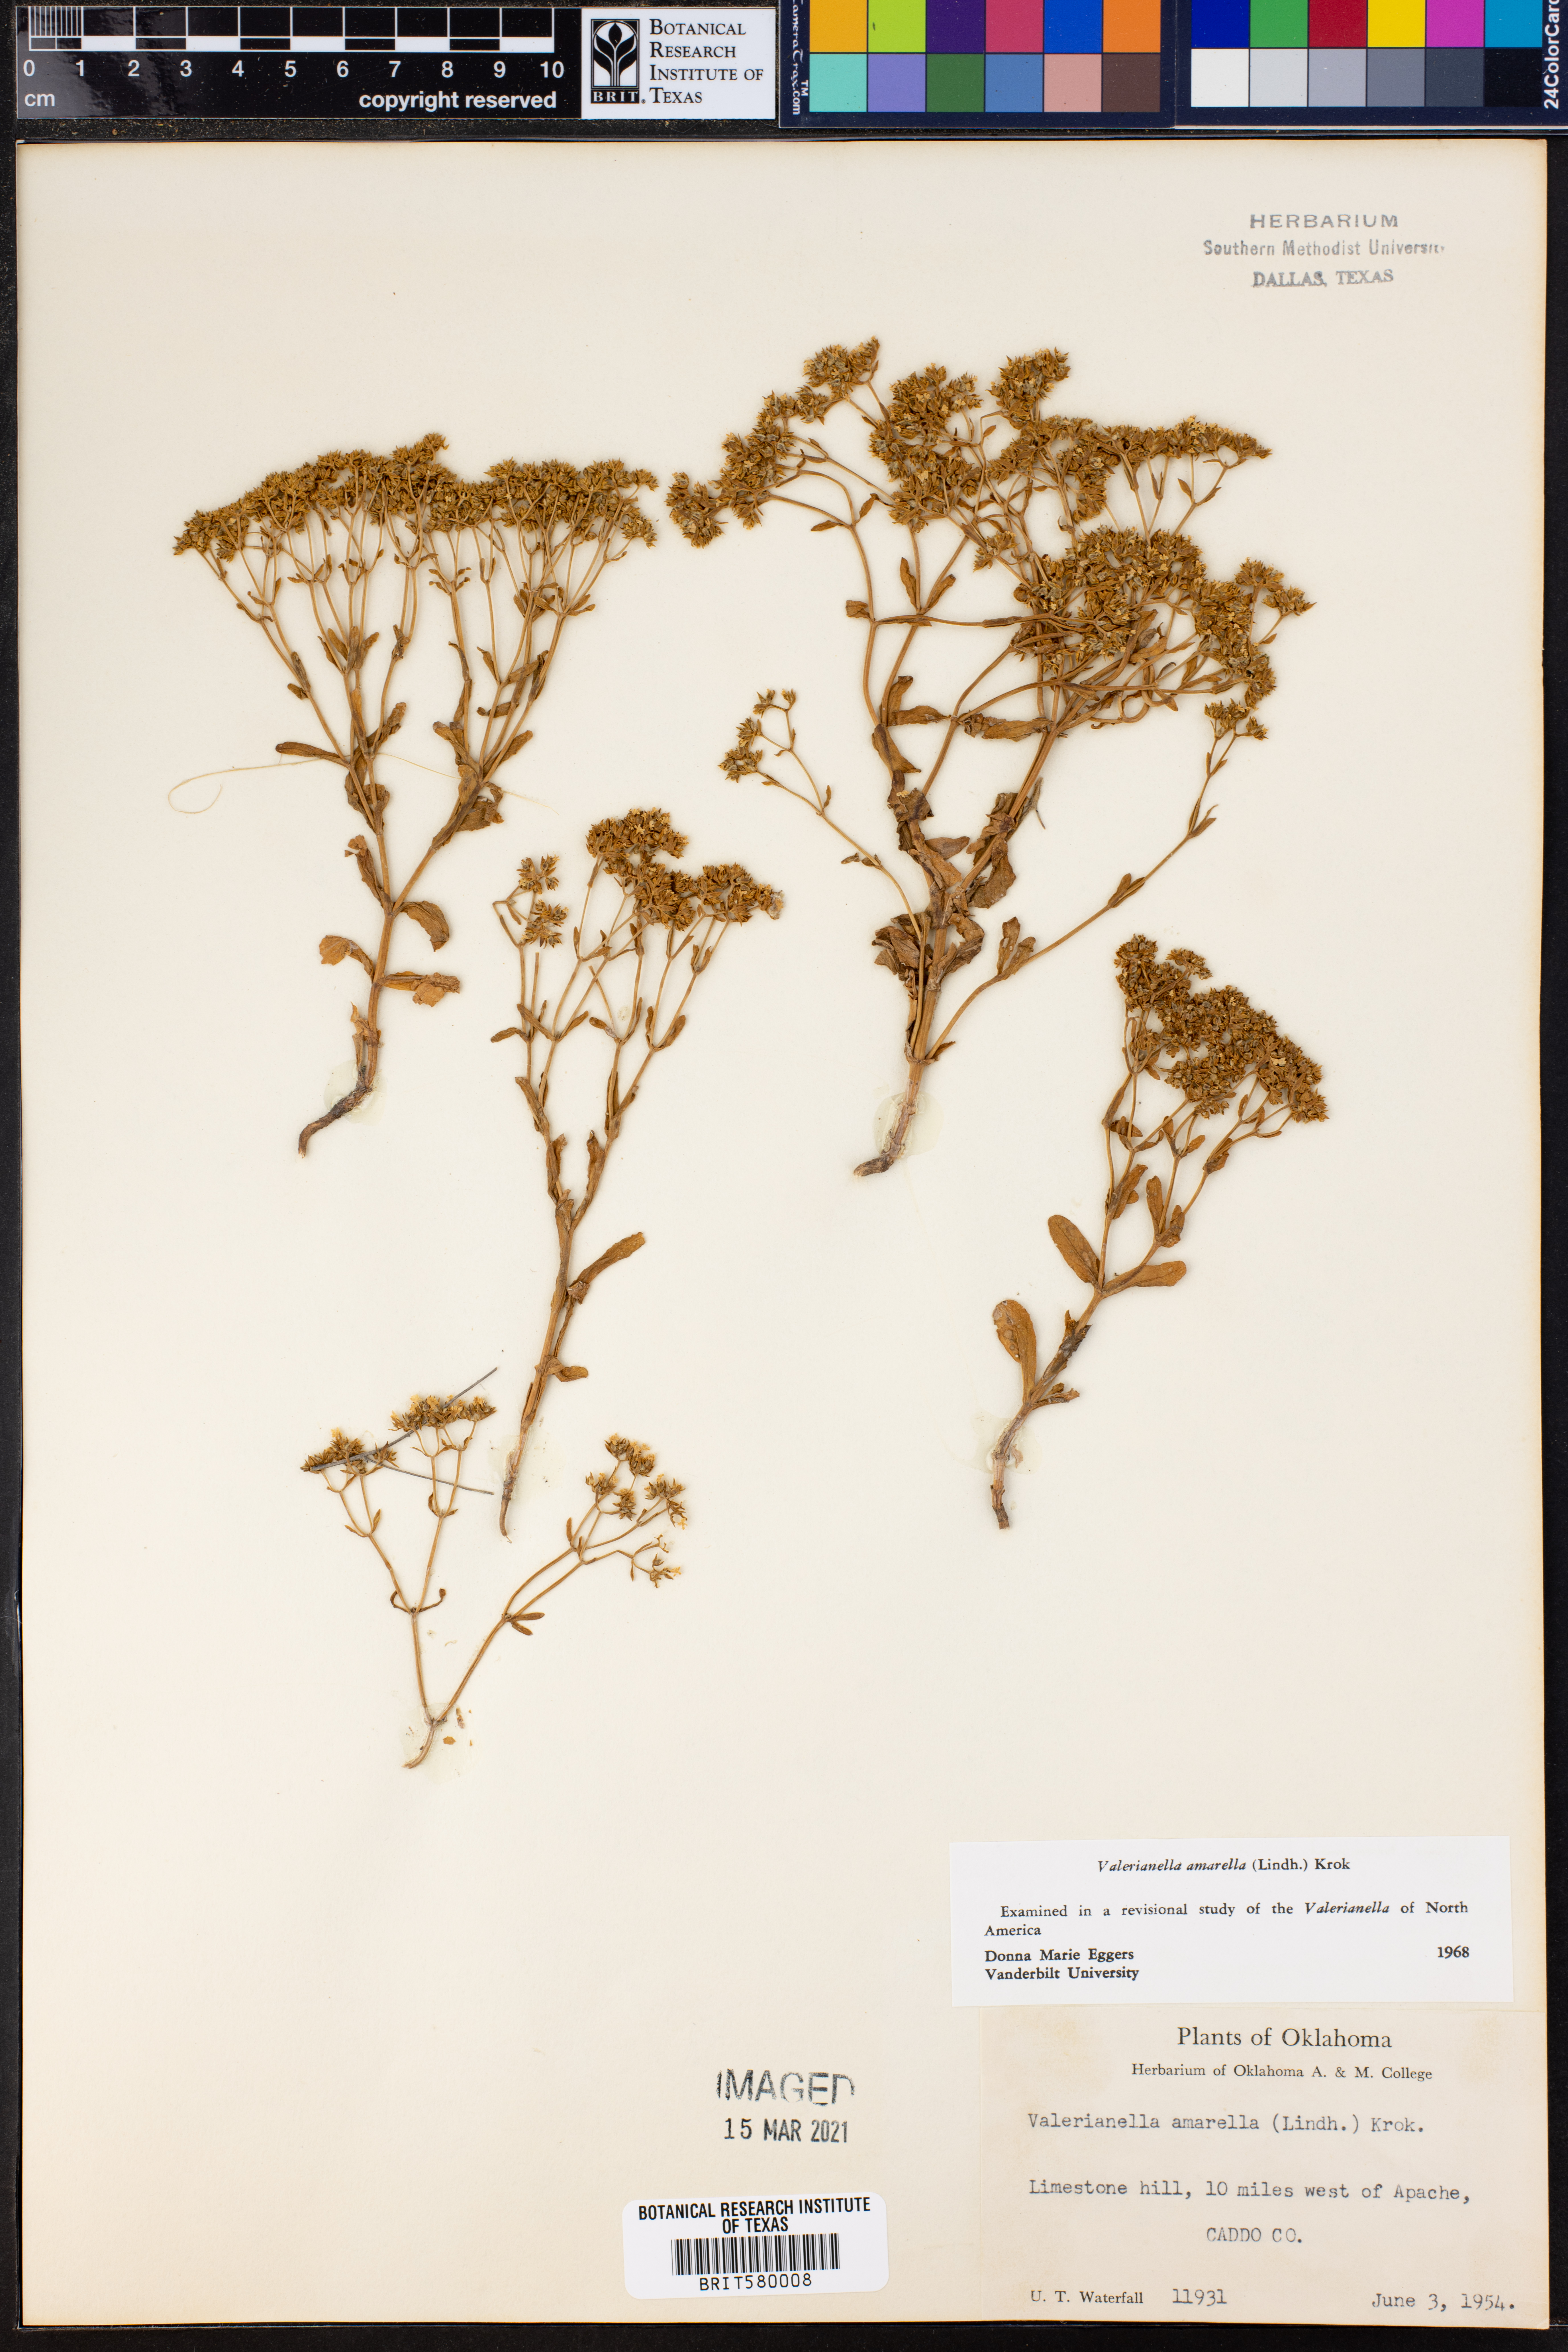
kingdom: Plantae
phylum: Tracheophyta
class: Magnoliopsida
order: Dipsacales
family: Caprifoliaceae
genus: Valerianella
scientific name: Valerianella amarella
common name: Hariy cornsalad
